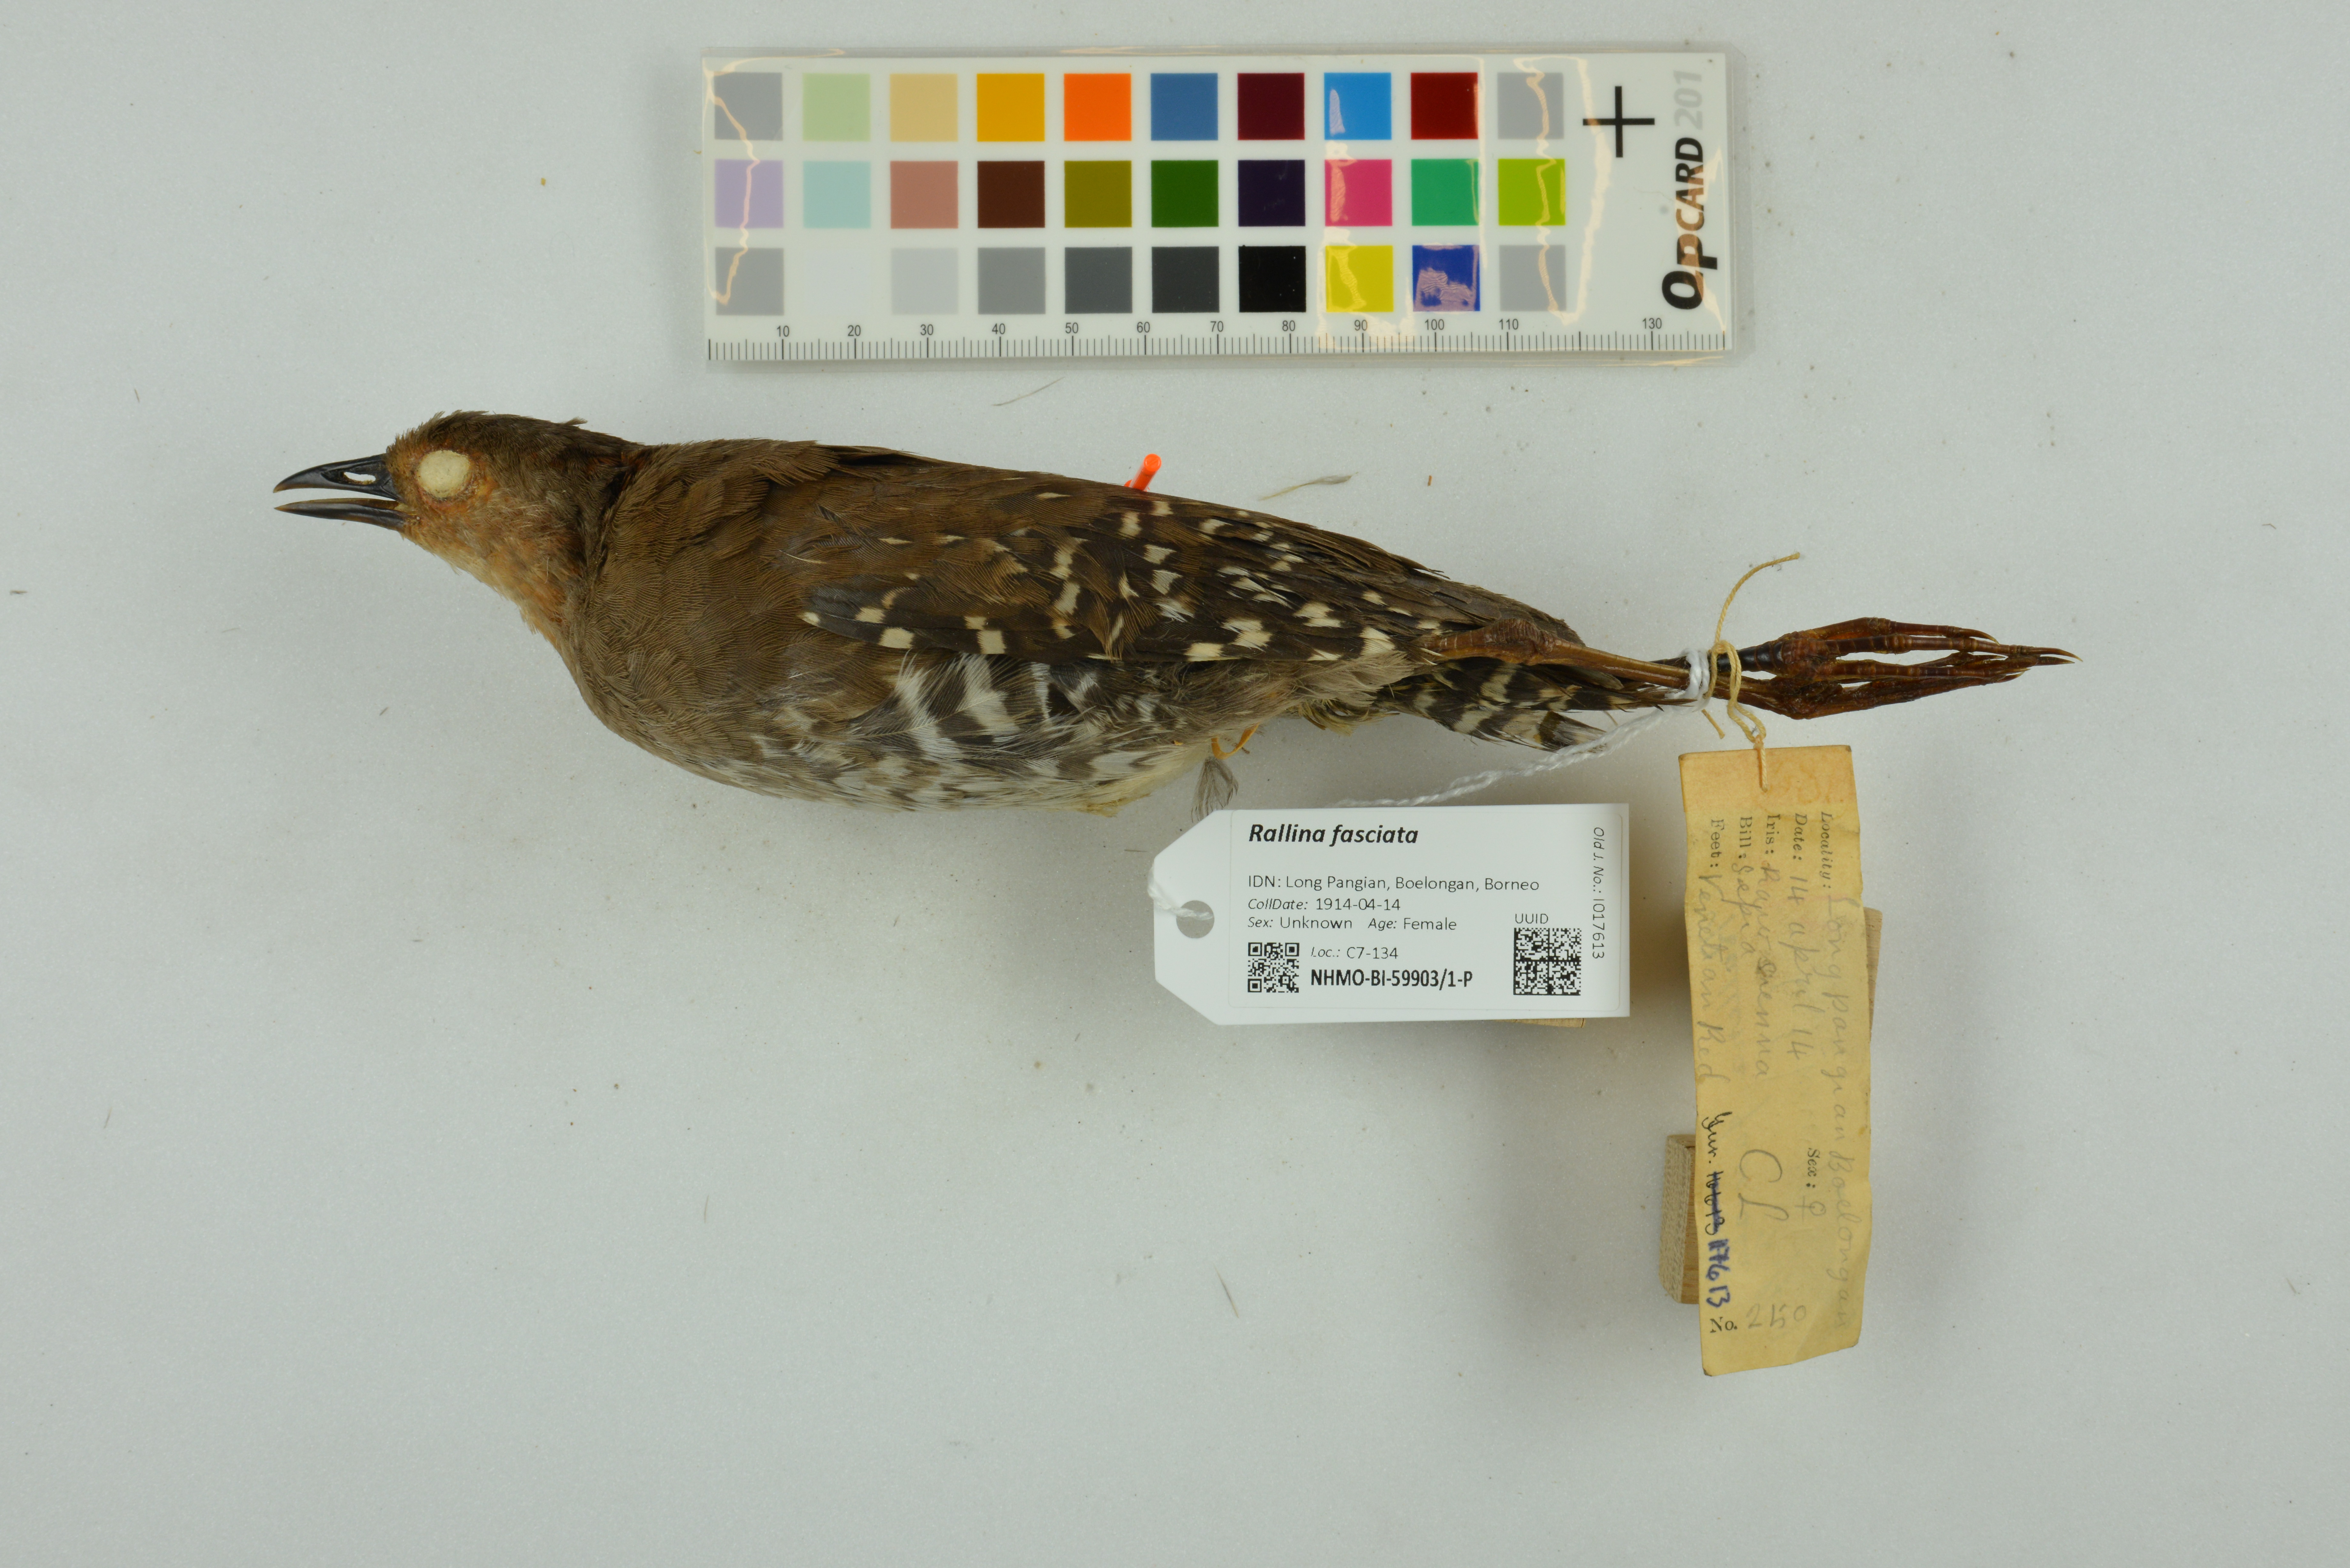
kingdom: Animalia
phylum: Chordata
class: Aves
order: Gruiformes
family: Rallidae
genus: Rallina
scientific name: Rallina fasciata
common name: Red-legged crake
